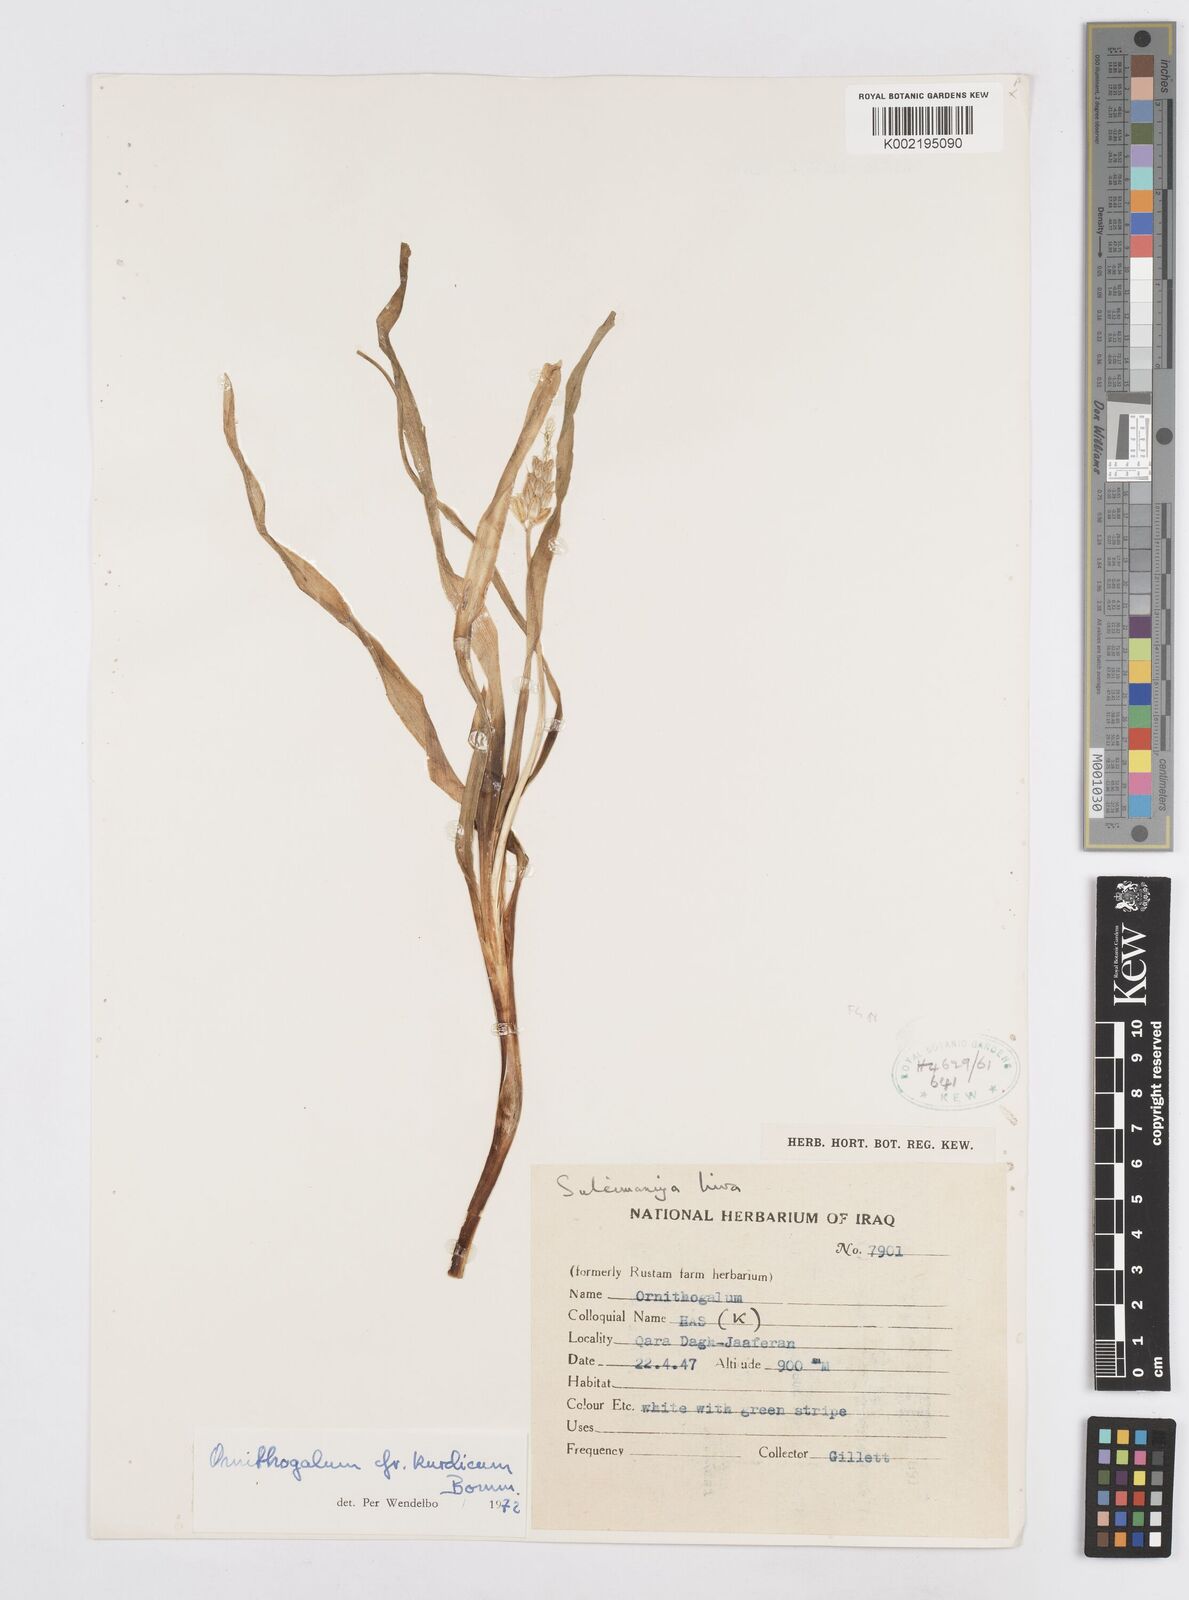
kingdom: Plantae
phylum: Tracheophyta
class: Liliopsida
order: Asparagales
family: Asparagaceae
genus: Ornithogalum
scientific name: Ornithogalum kurdicum
